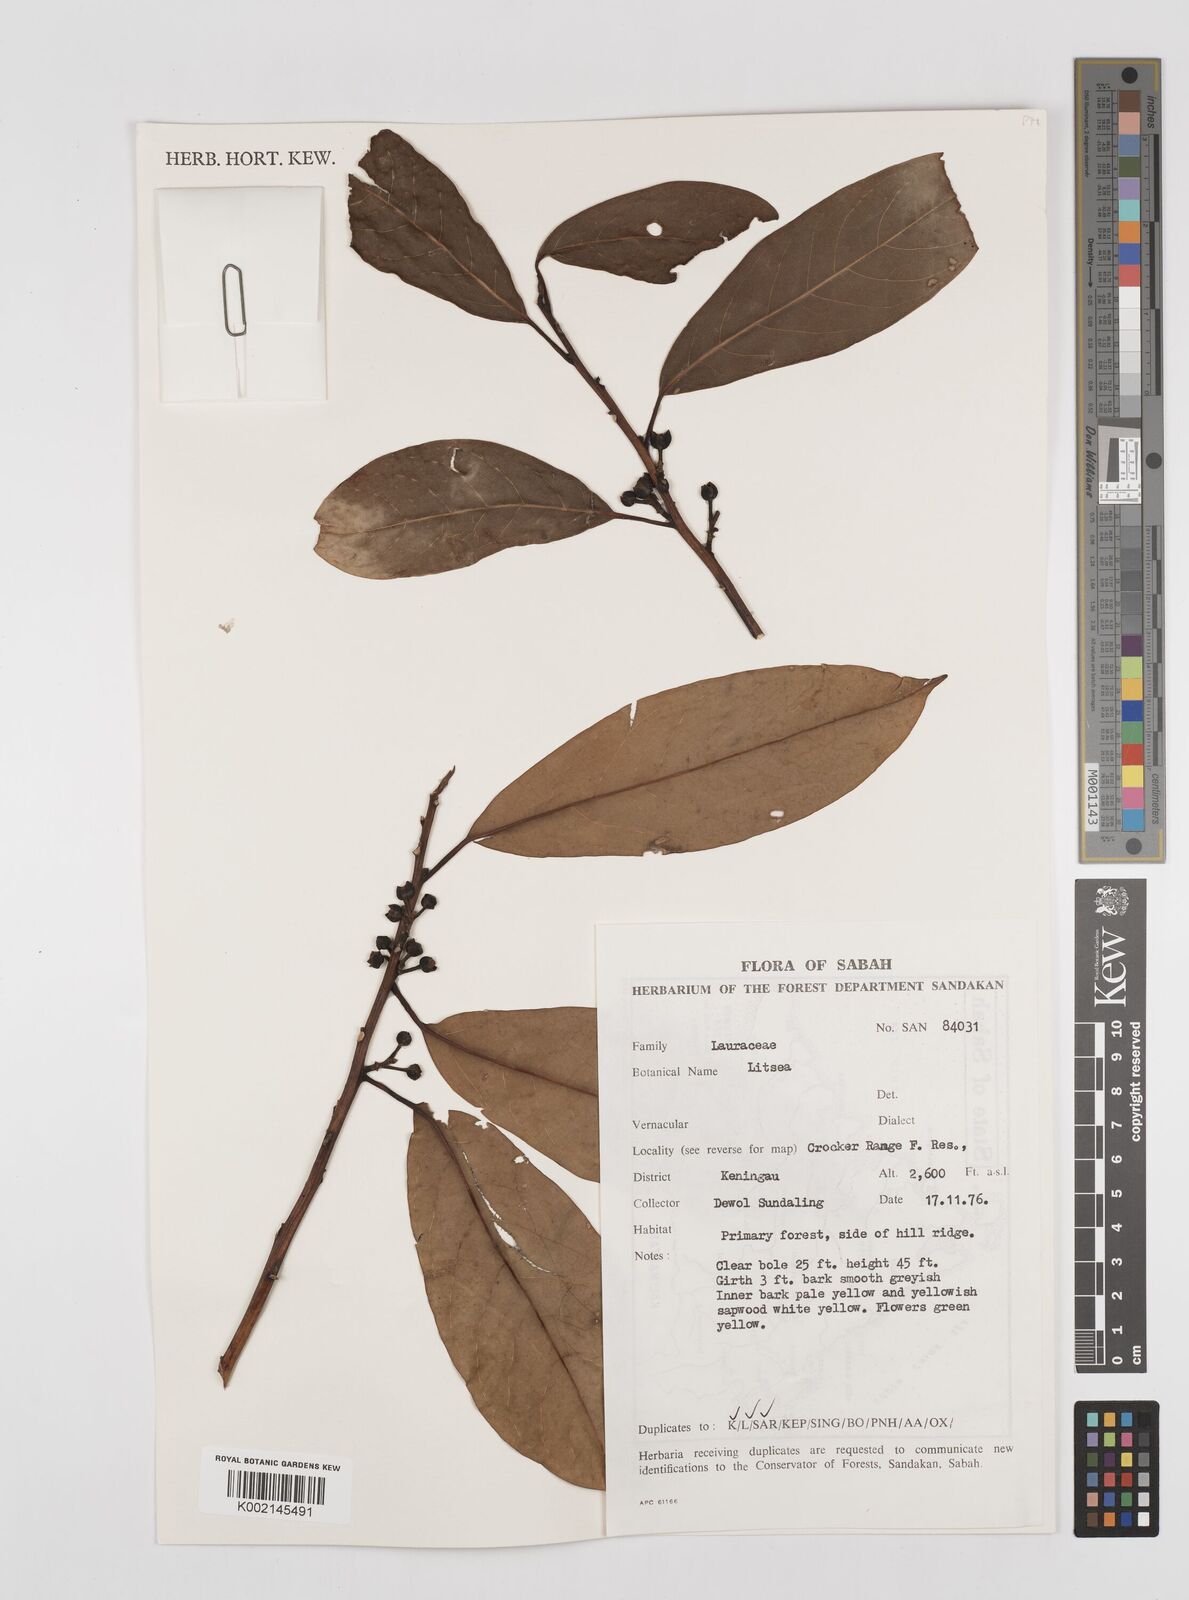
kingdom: Plantae
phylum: Tracheophyta
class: Magnoliopsida
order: Laurales
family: Lauraceae
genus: Litsea
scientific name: Litsea
